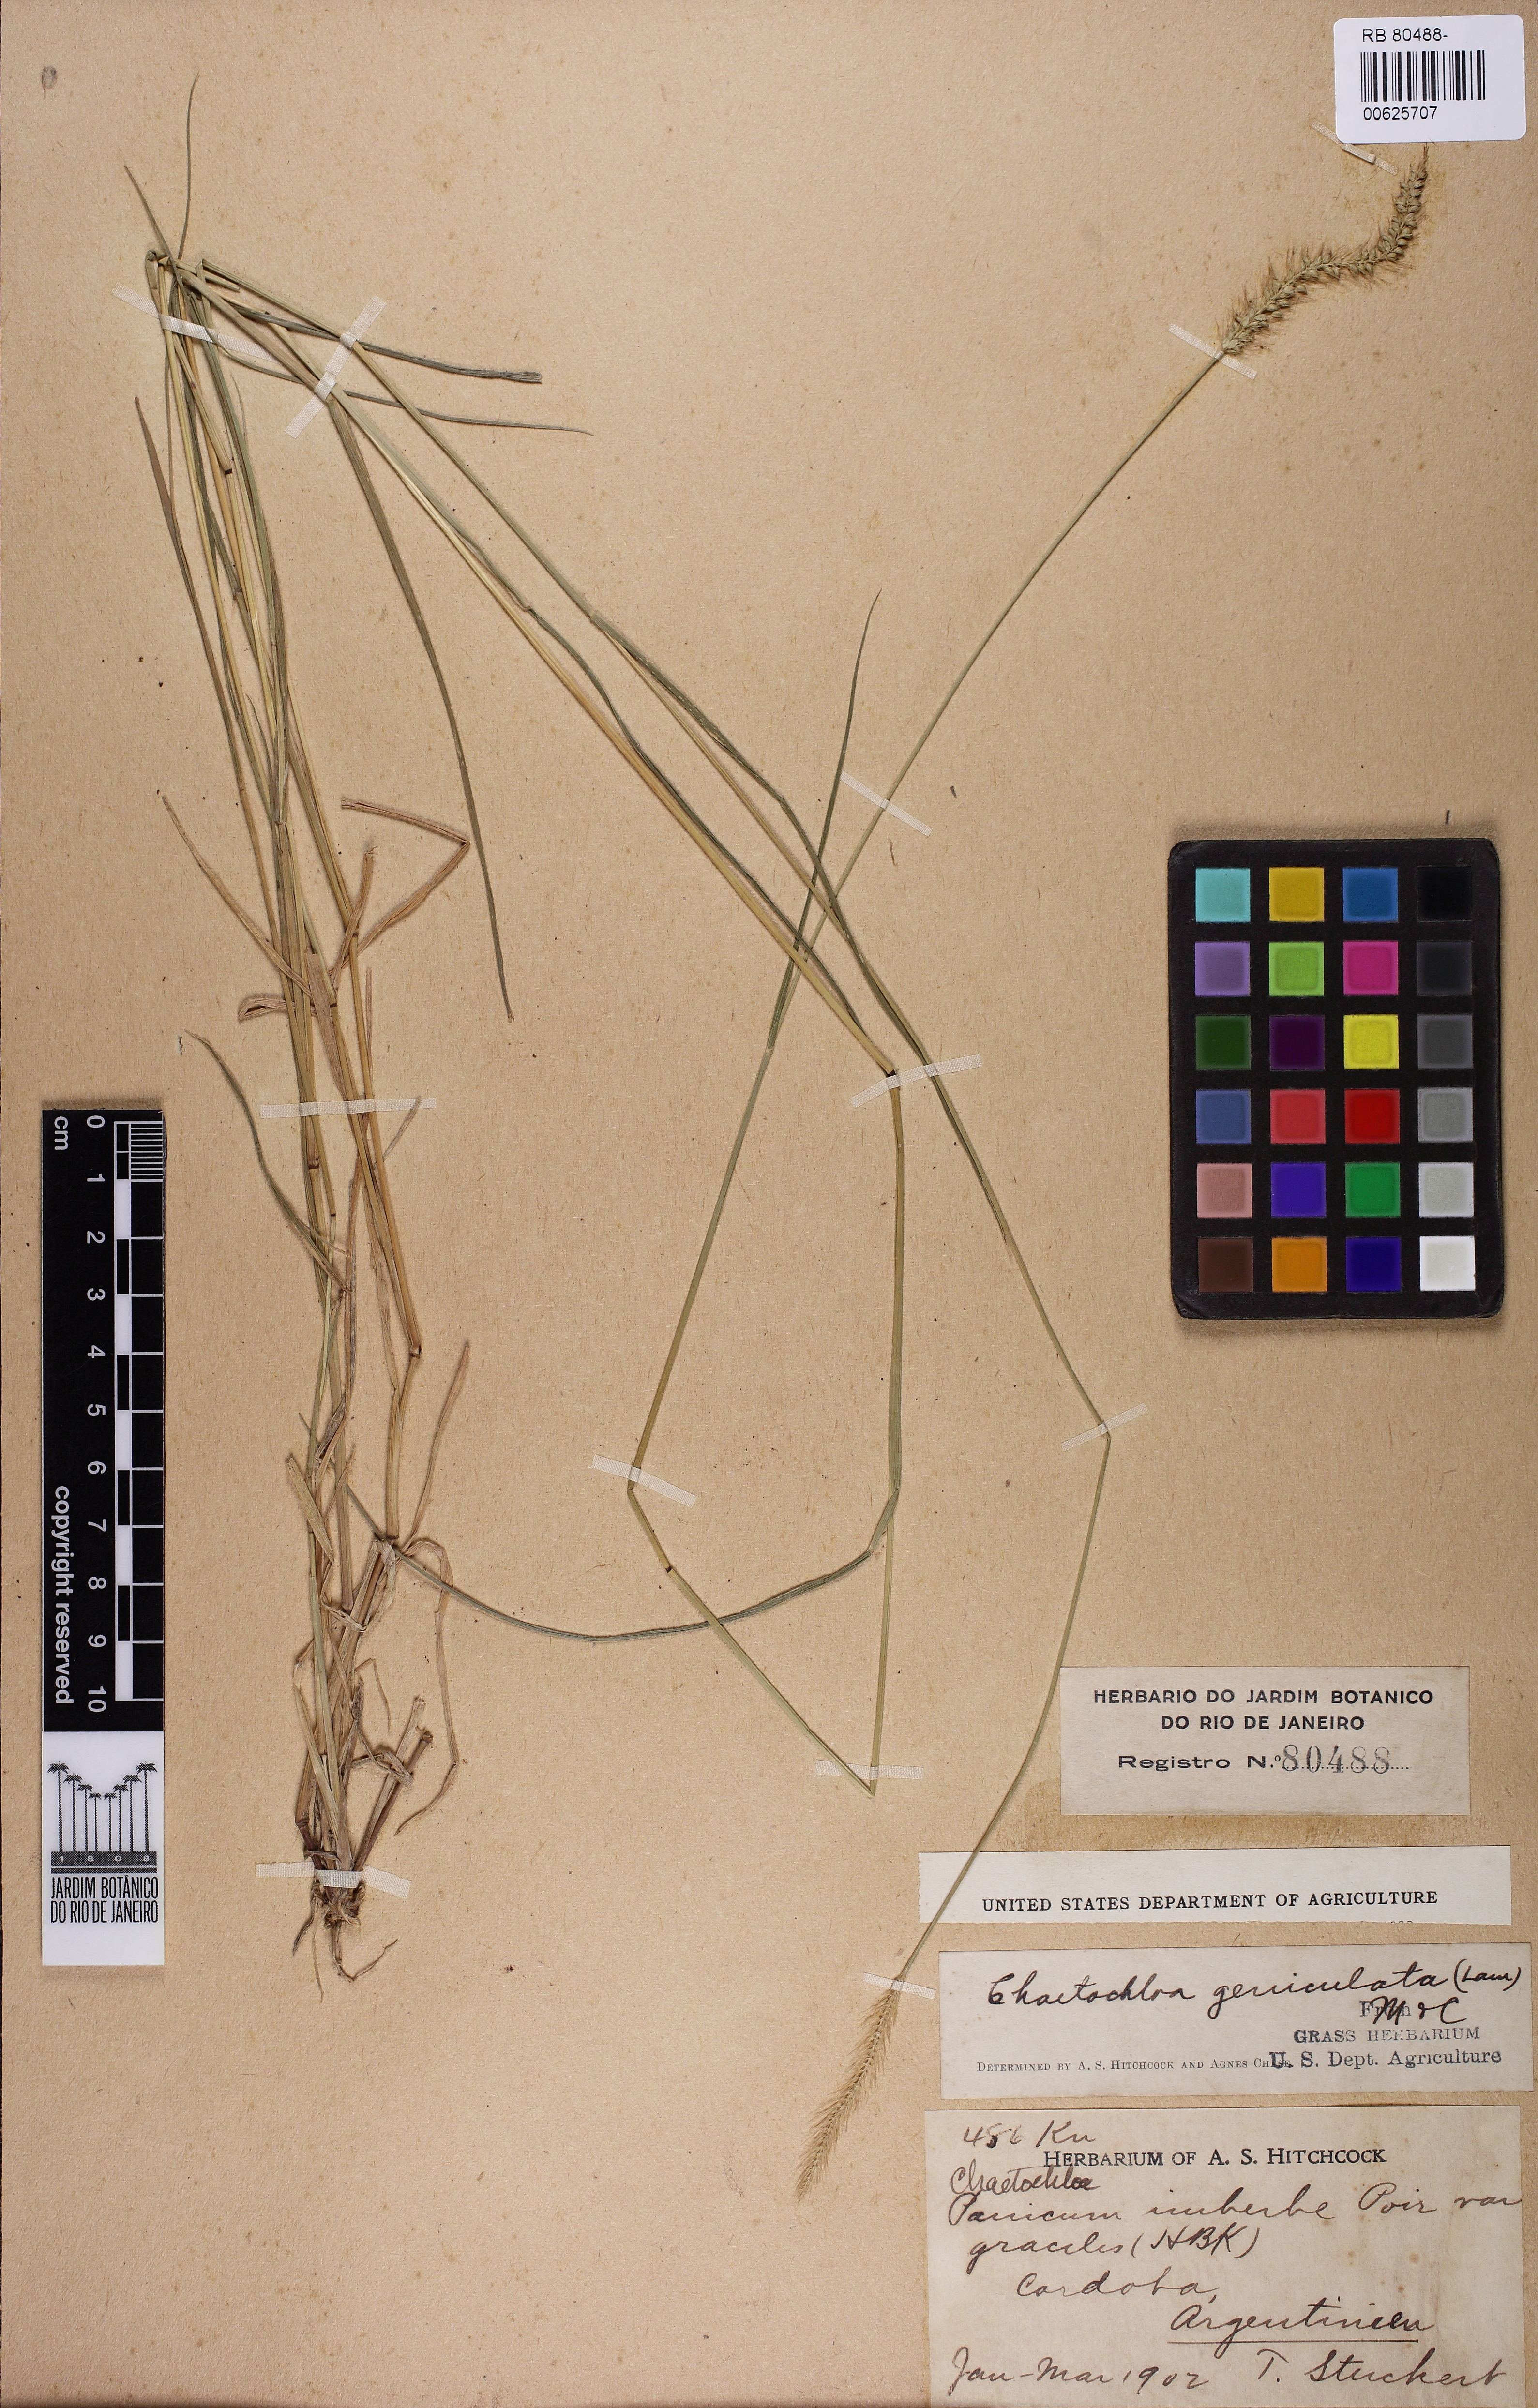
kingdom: Plantae
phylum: Tracheophyta
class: Liliopsida
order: Poales
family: Poaceae
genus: Setaria
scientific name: Setaria parviflora
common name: Knotroot bristle-grass
